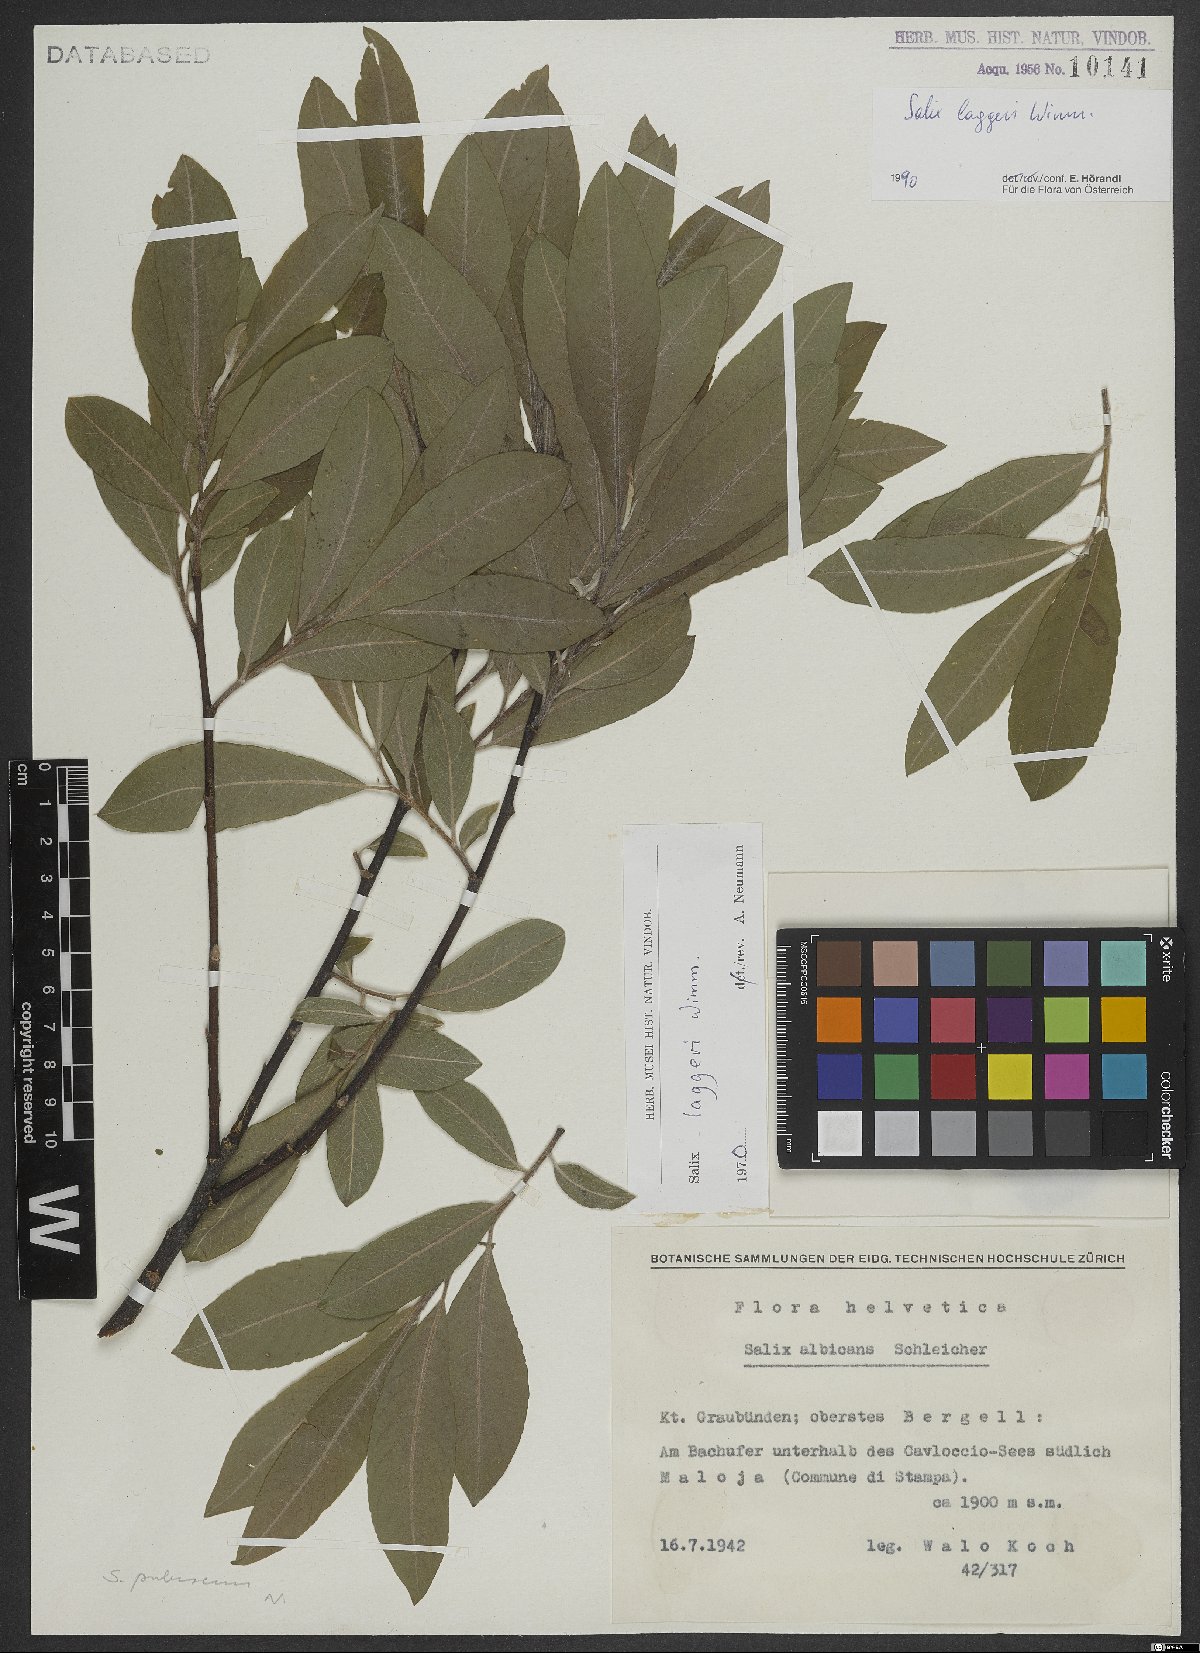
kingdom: Plantae
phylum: Tracheophyta
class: Magnoliopsida
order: Malpighiales
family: Salicaceae
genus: Salix
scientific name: Salix laggeri
